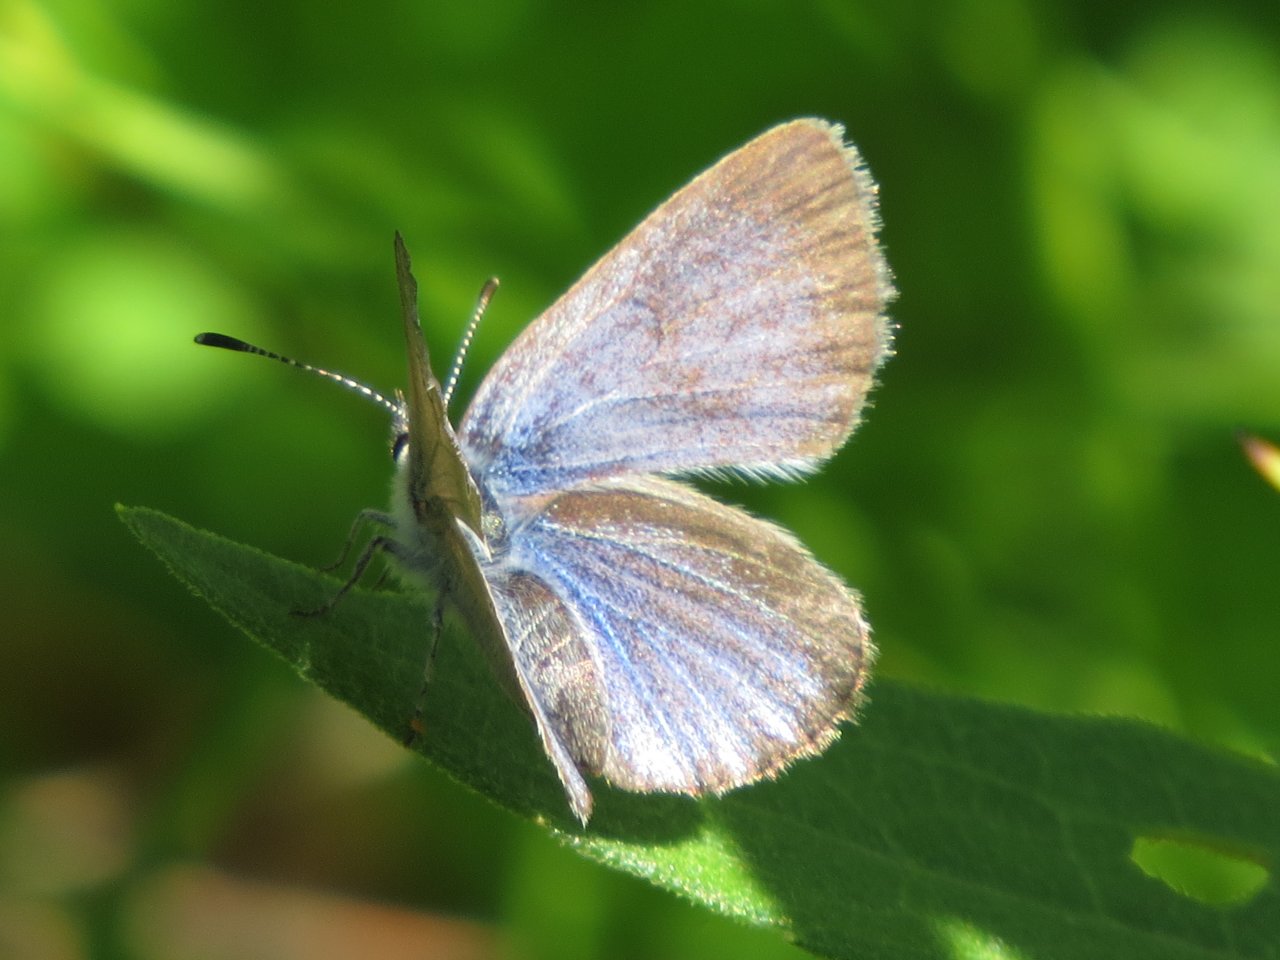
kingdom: Animalia
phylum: Arthropoda
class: Insecta
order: Lepidoptera
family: Lycaenidae
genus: Glaucopsyche
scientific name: Glaucopsyche lygdamus
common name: Silvery Blue
